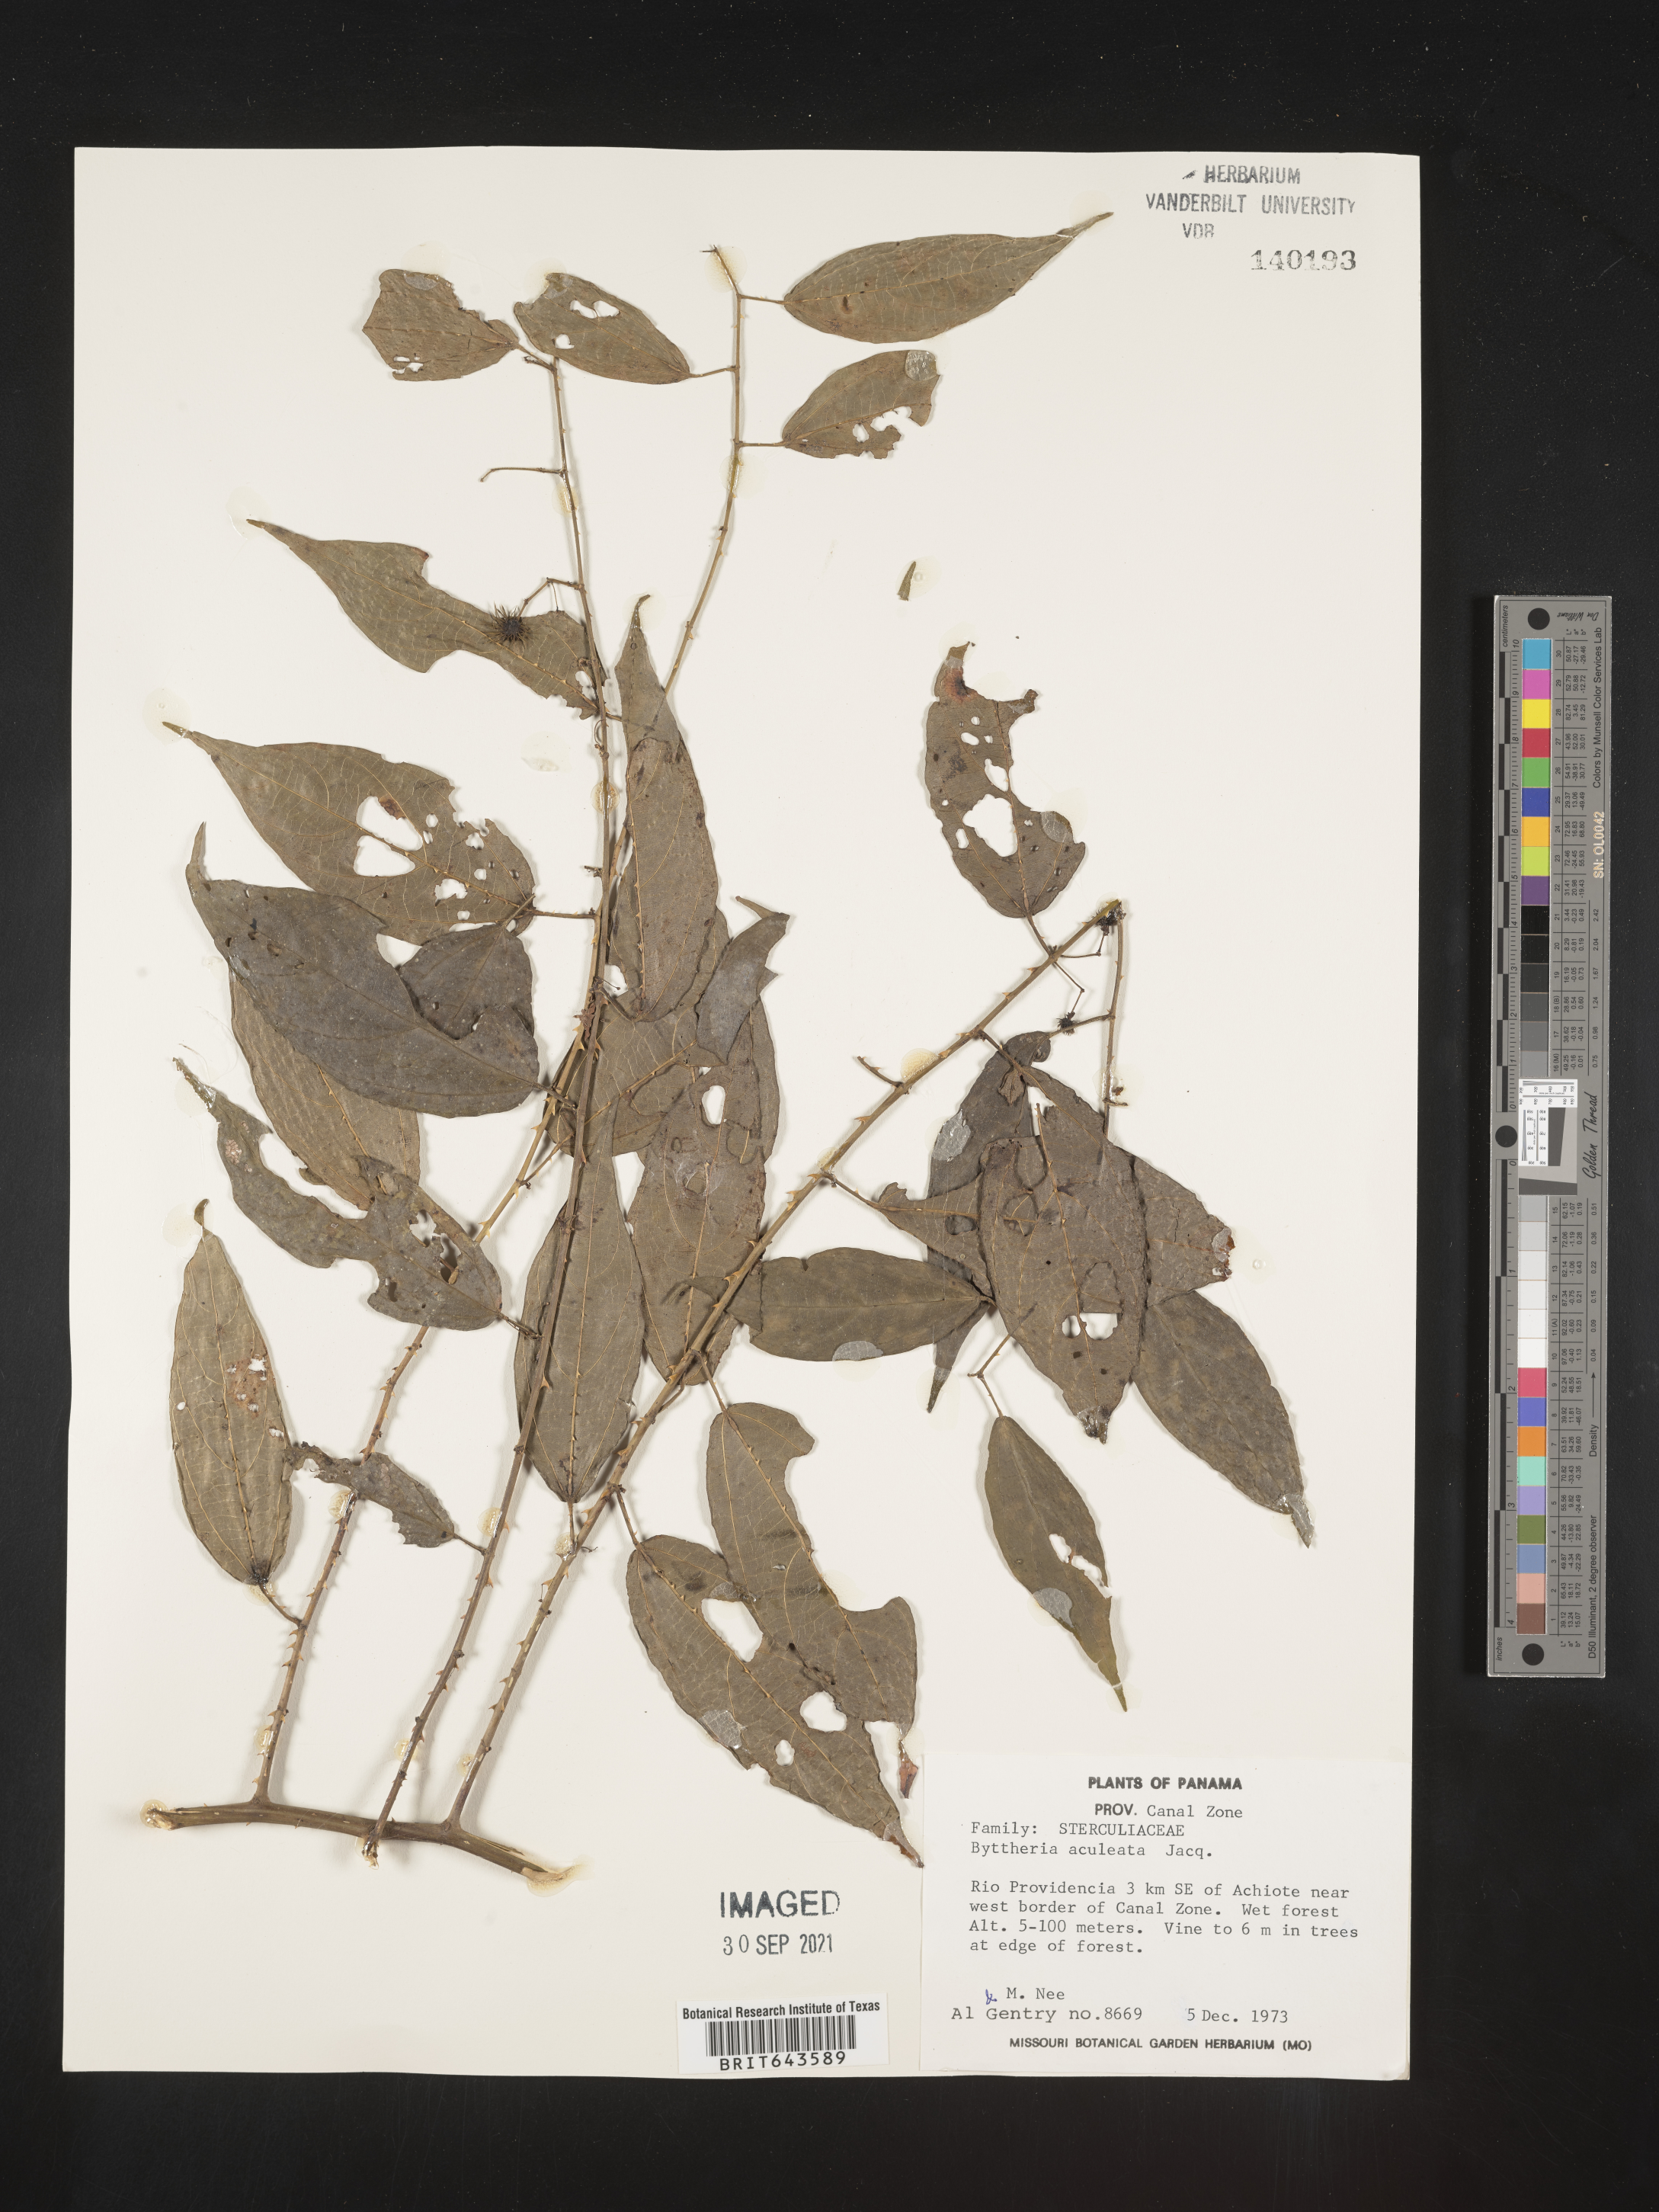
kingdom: Plantae
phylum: Tracheophyta
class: Magnoliopsida
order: Malvales
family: Malvaceae
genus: Byttneria
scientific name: Byttneria
